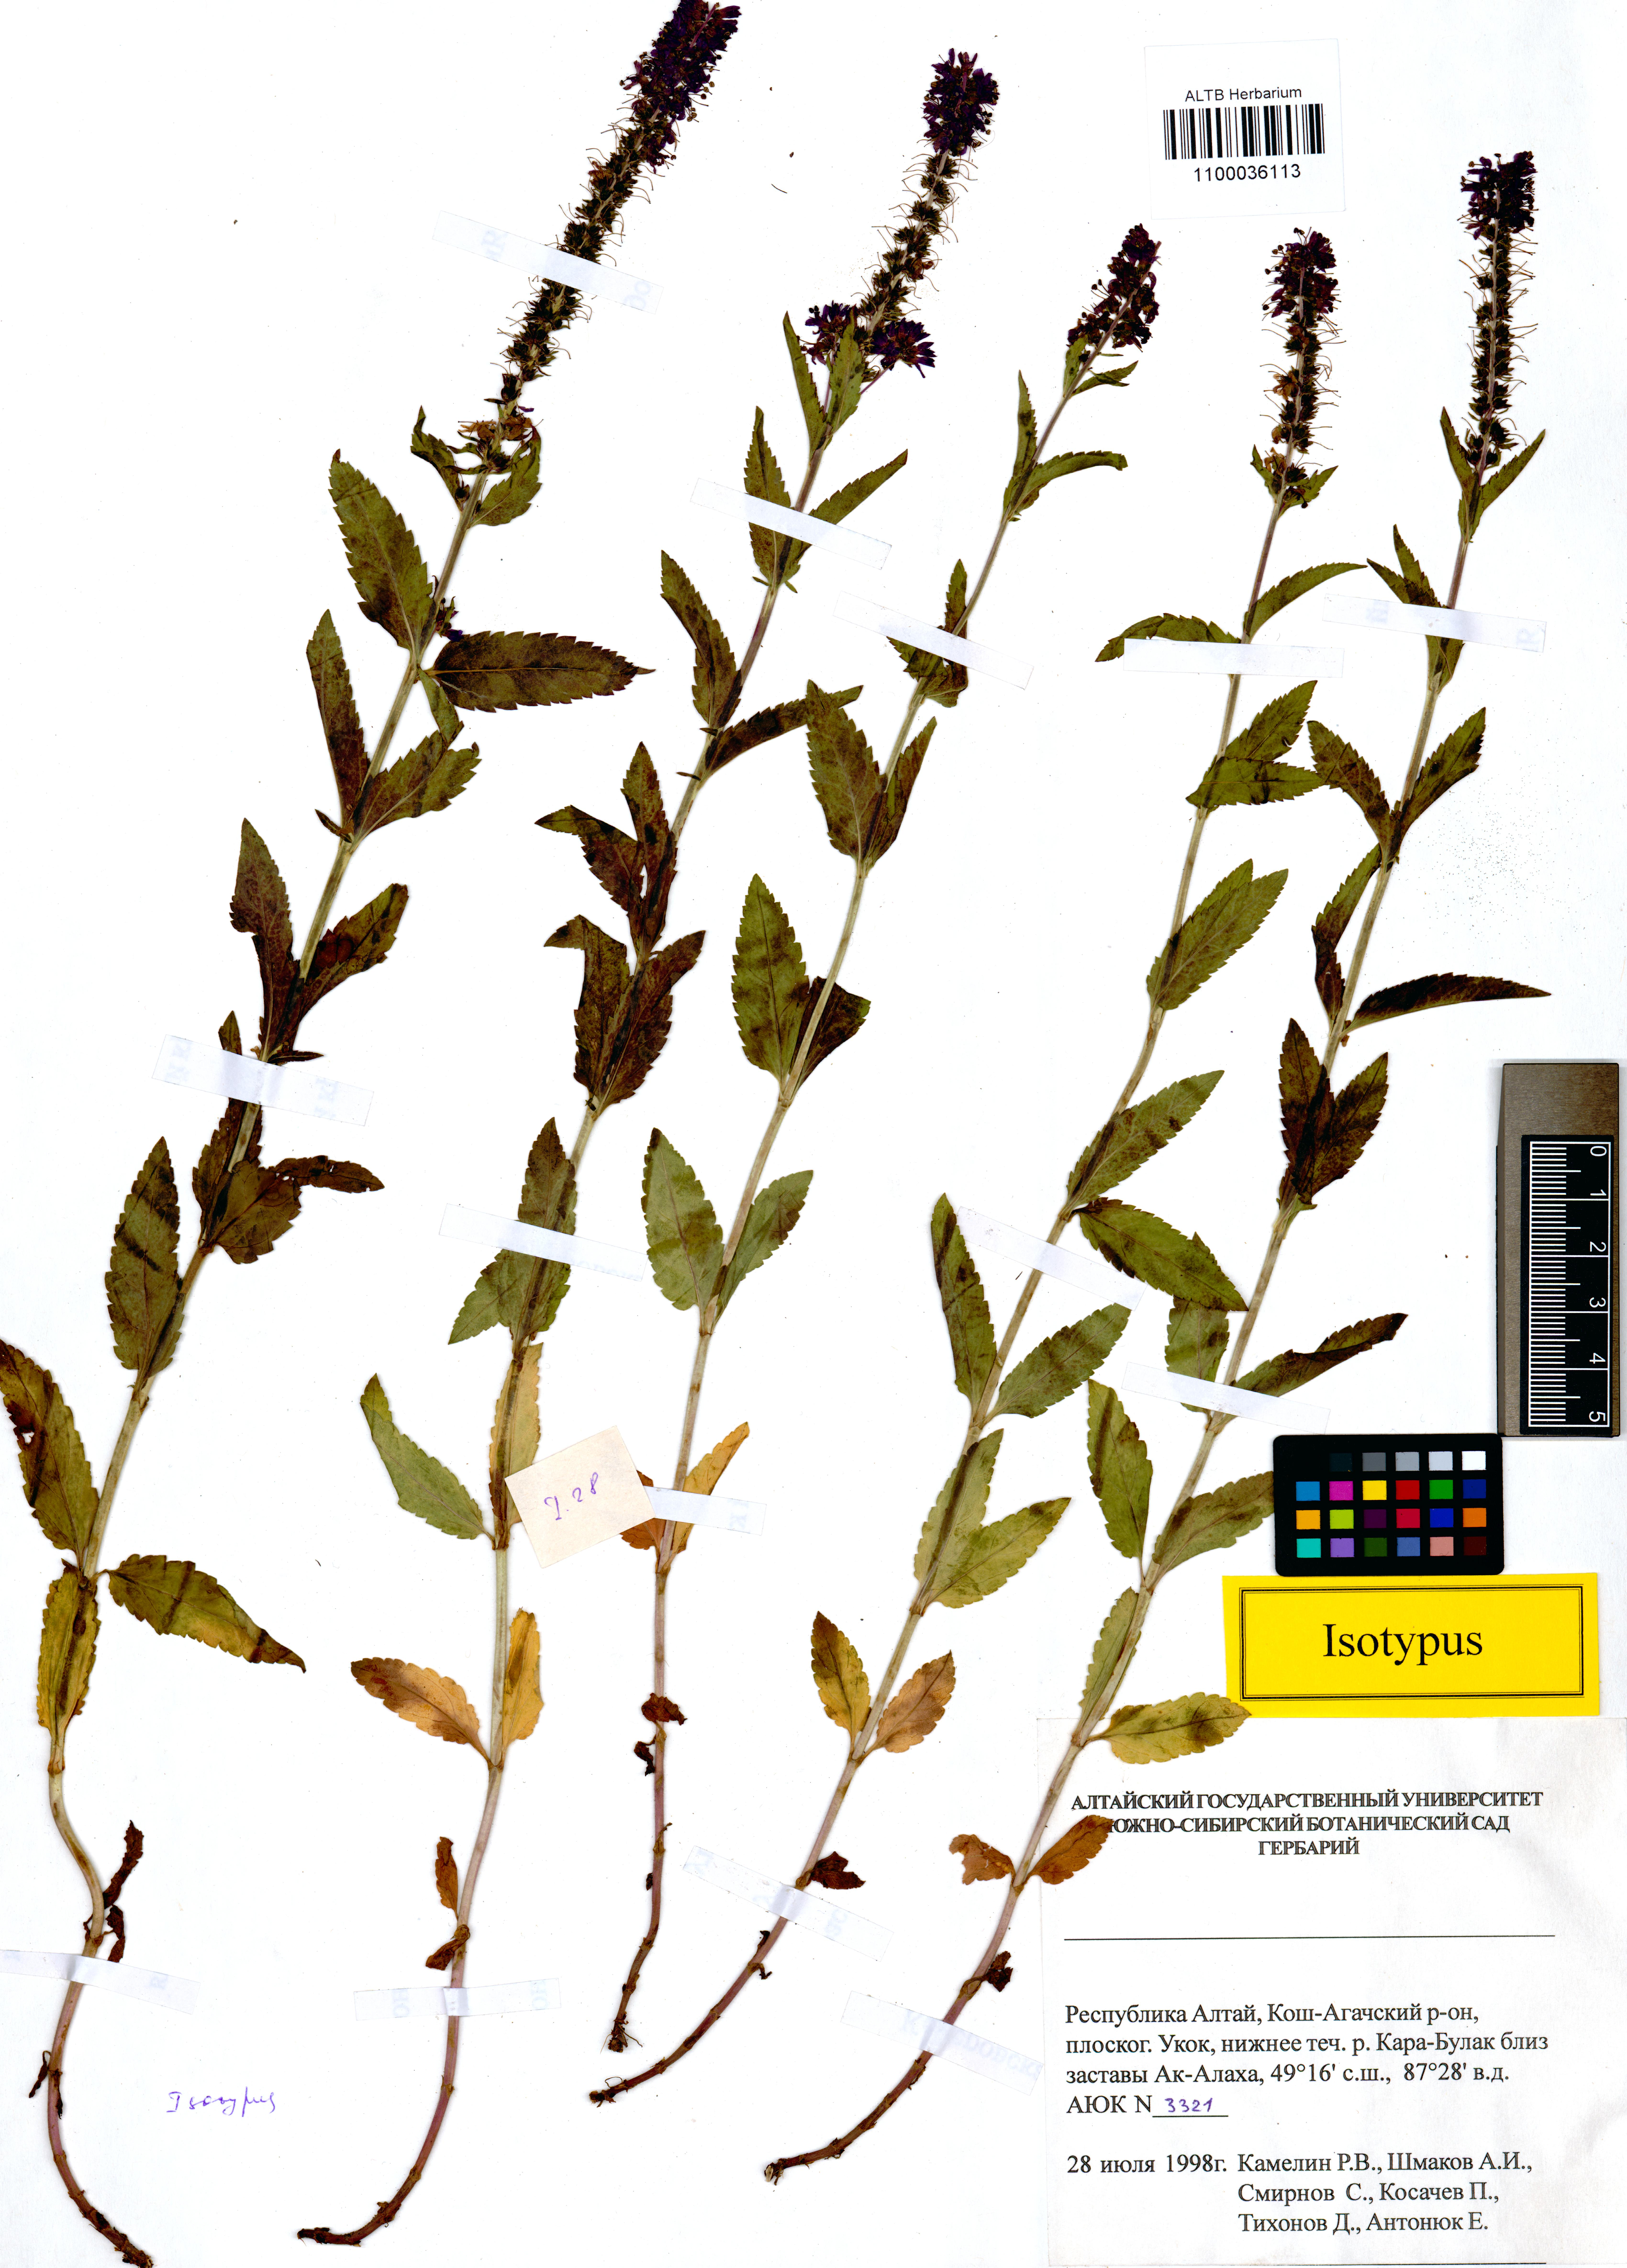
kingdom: Plantae
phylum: Tracheophyta
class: Magnoliopsida
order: Lamiales
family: Plantaginaceae
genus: Veronica
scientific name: Veronica schmakovii
